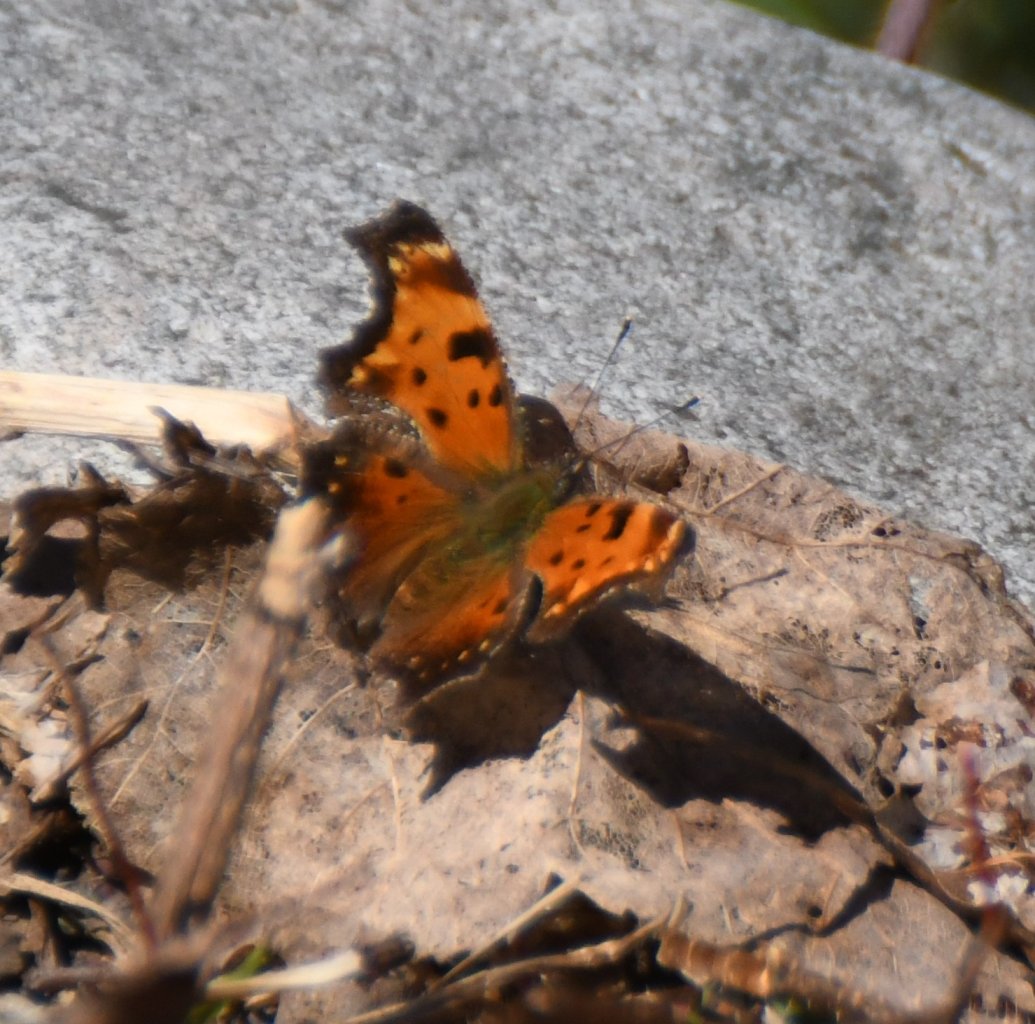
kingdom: Animalia
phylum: Arthropoda
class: Insecta
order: Lepidoptera
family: Nymphalidae
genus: Polygonia
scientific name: Polygonia progne
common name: Gray Comma
